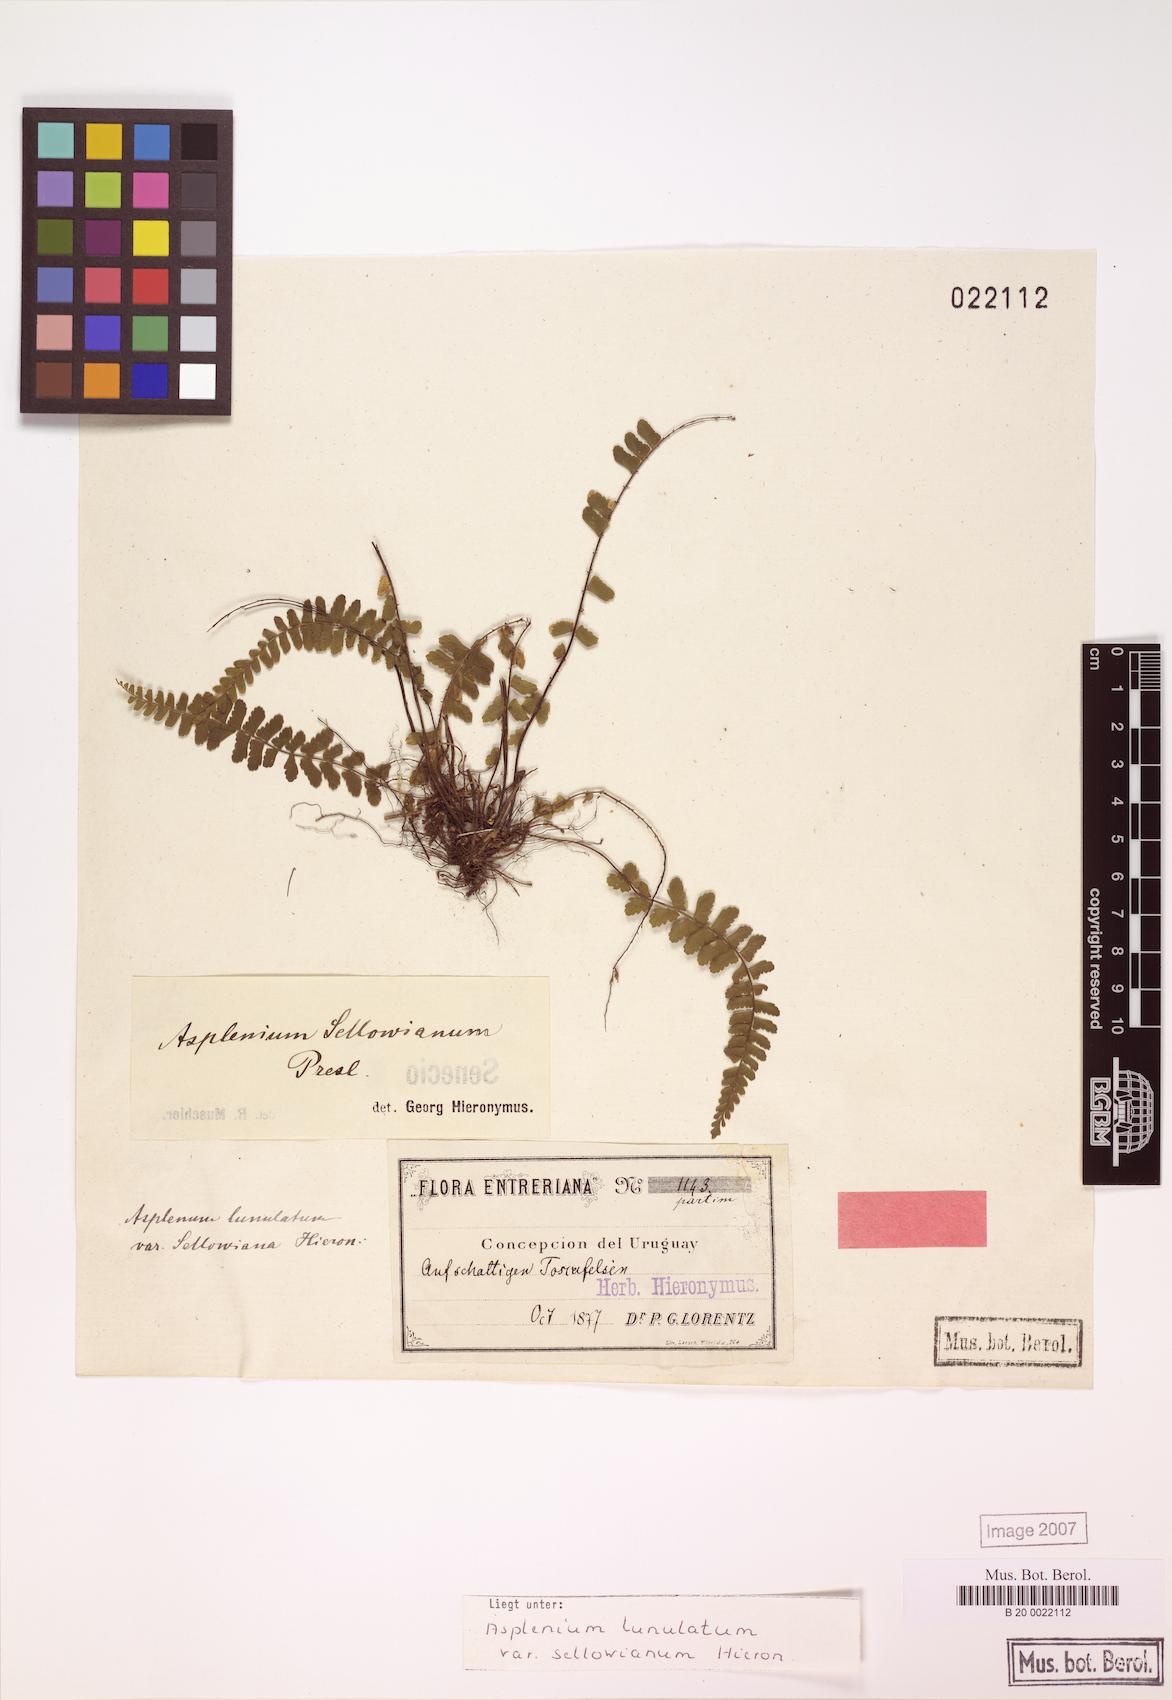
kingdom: Plantae
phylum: Tracheophyta
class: Polypodiopsida
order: Polypodiales
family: Aspleniaceae
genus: Asplenium
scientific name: Asplenium sellowianum
